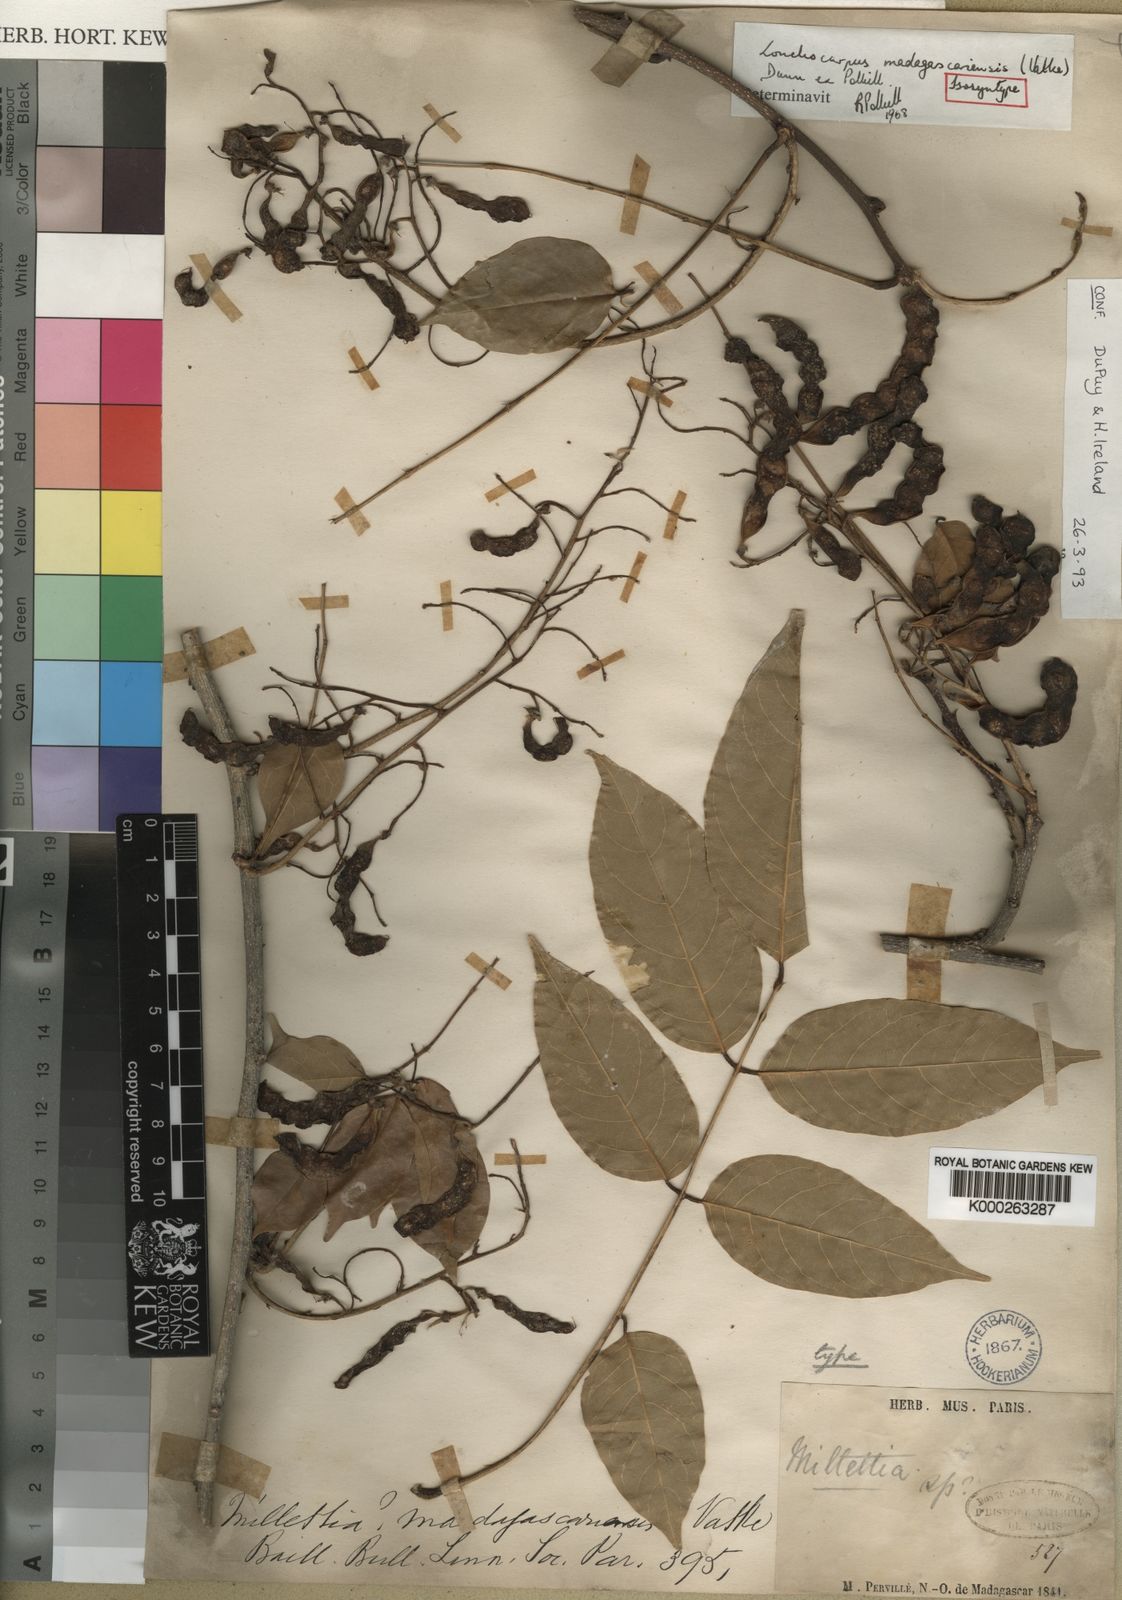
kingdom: Plantae
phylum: Tracheophyta
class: Magnoliopsida
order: Fabales
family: Fabaceae
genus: Lonchocarpus
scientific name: Lonchocarpus madagascariensis
